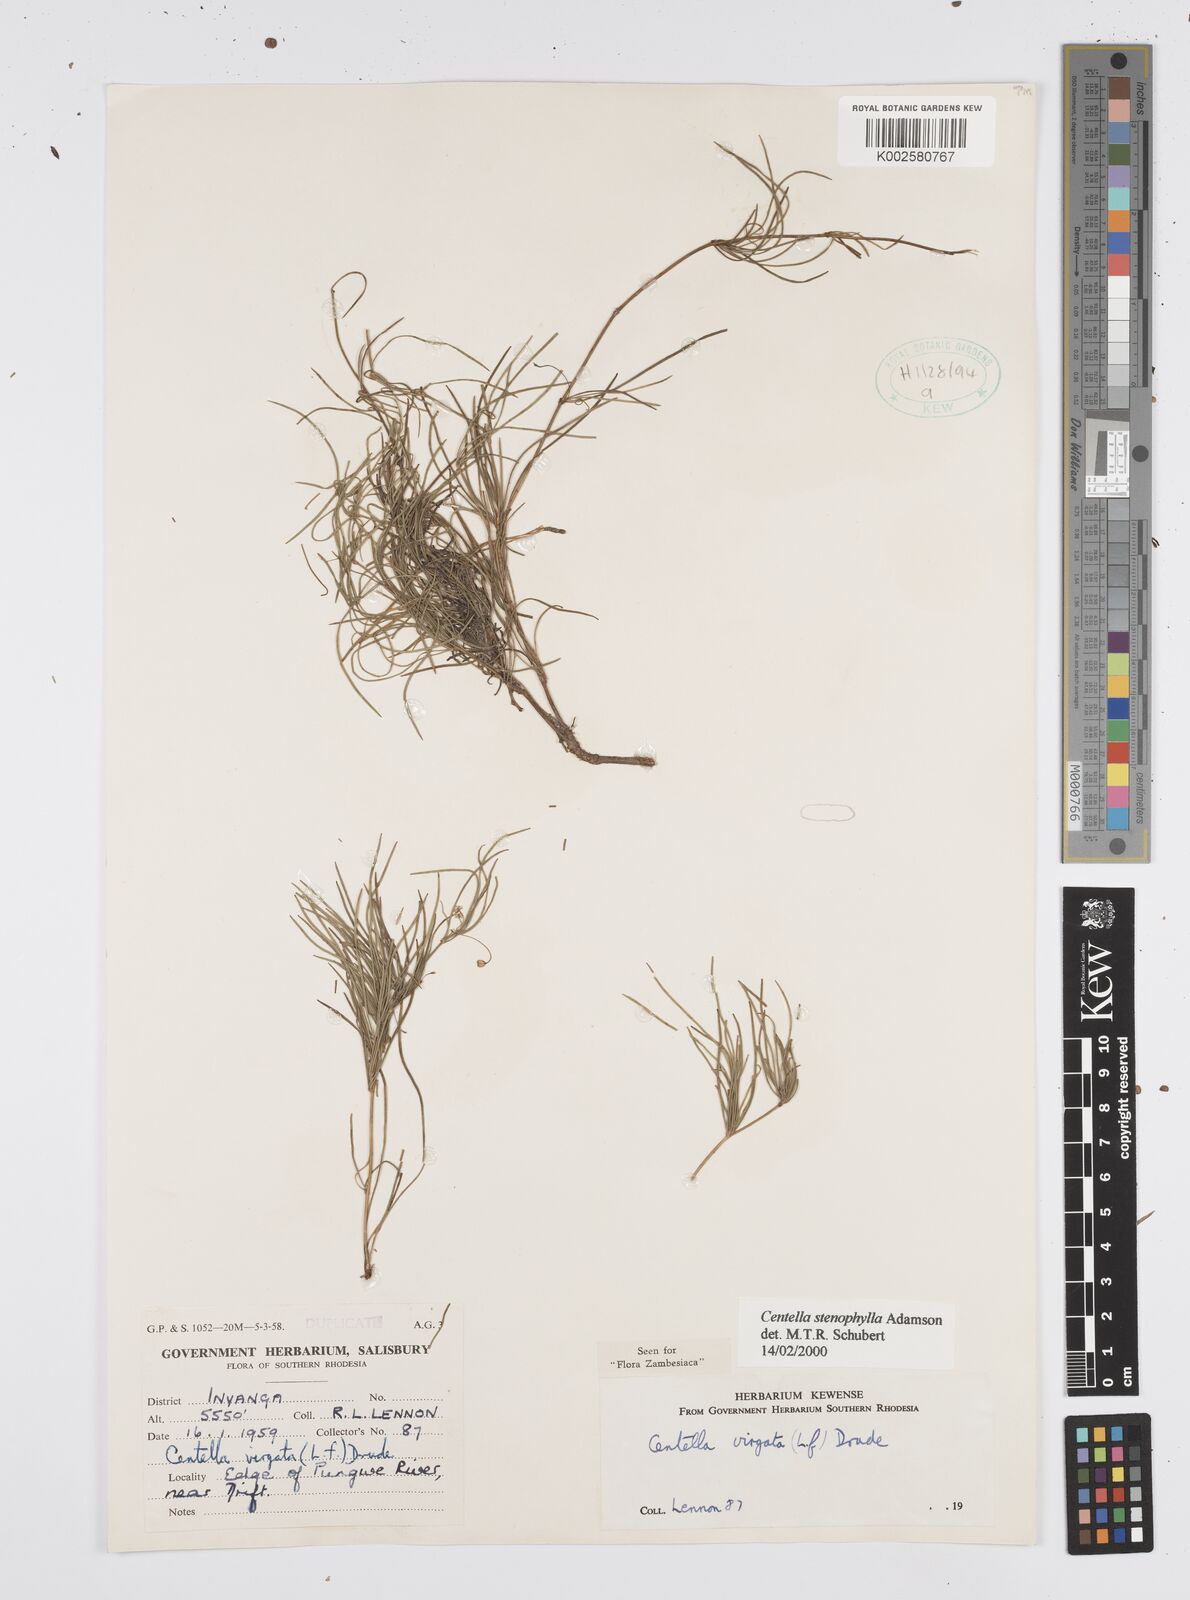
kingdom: Plantae
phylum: Tracheophyta
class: Magnoliopsida
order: Apiales
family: Apiaceae
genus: Centella
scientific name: Centella stenophylla
